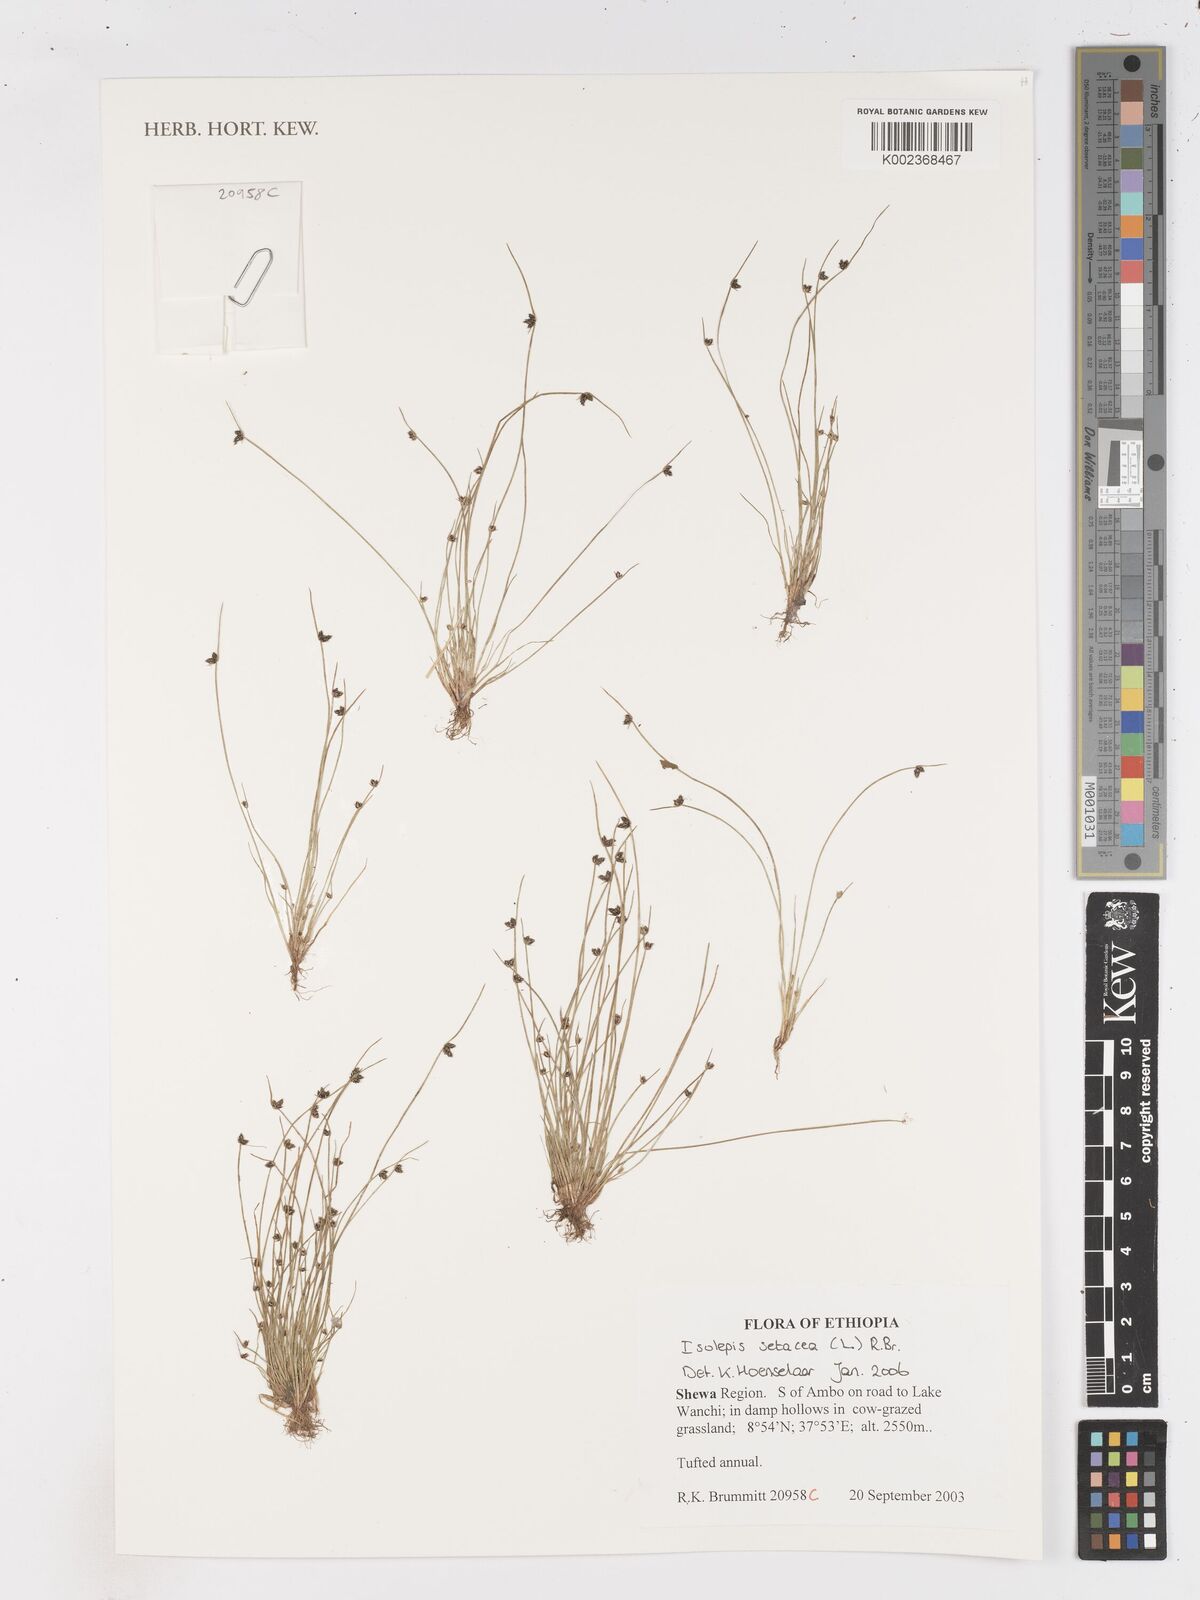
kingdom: Plantae
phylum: Tracheophyta
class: Liliopsida
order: Poales
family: Cyperaceae
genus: Isolepis
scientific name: Isolepis setacea
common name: Bristle club-rush
